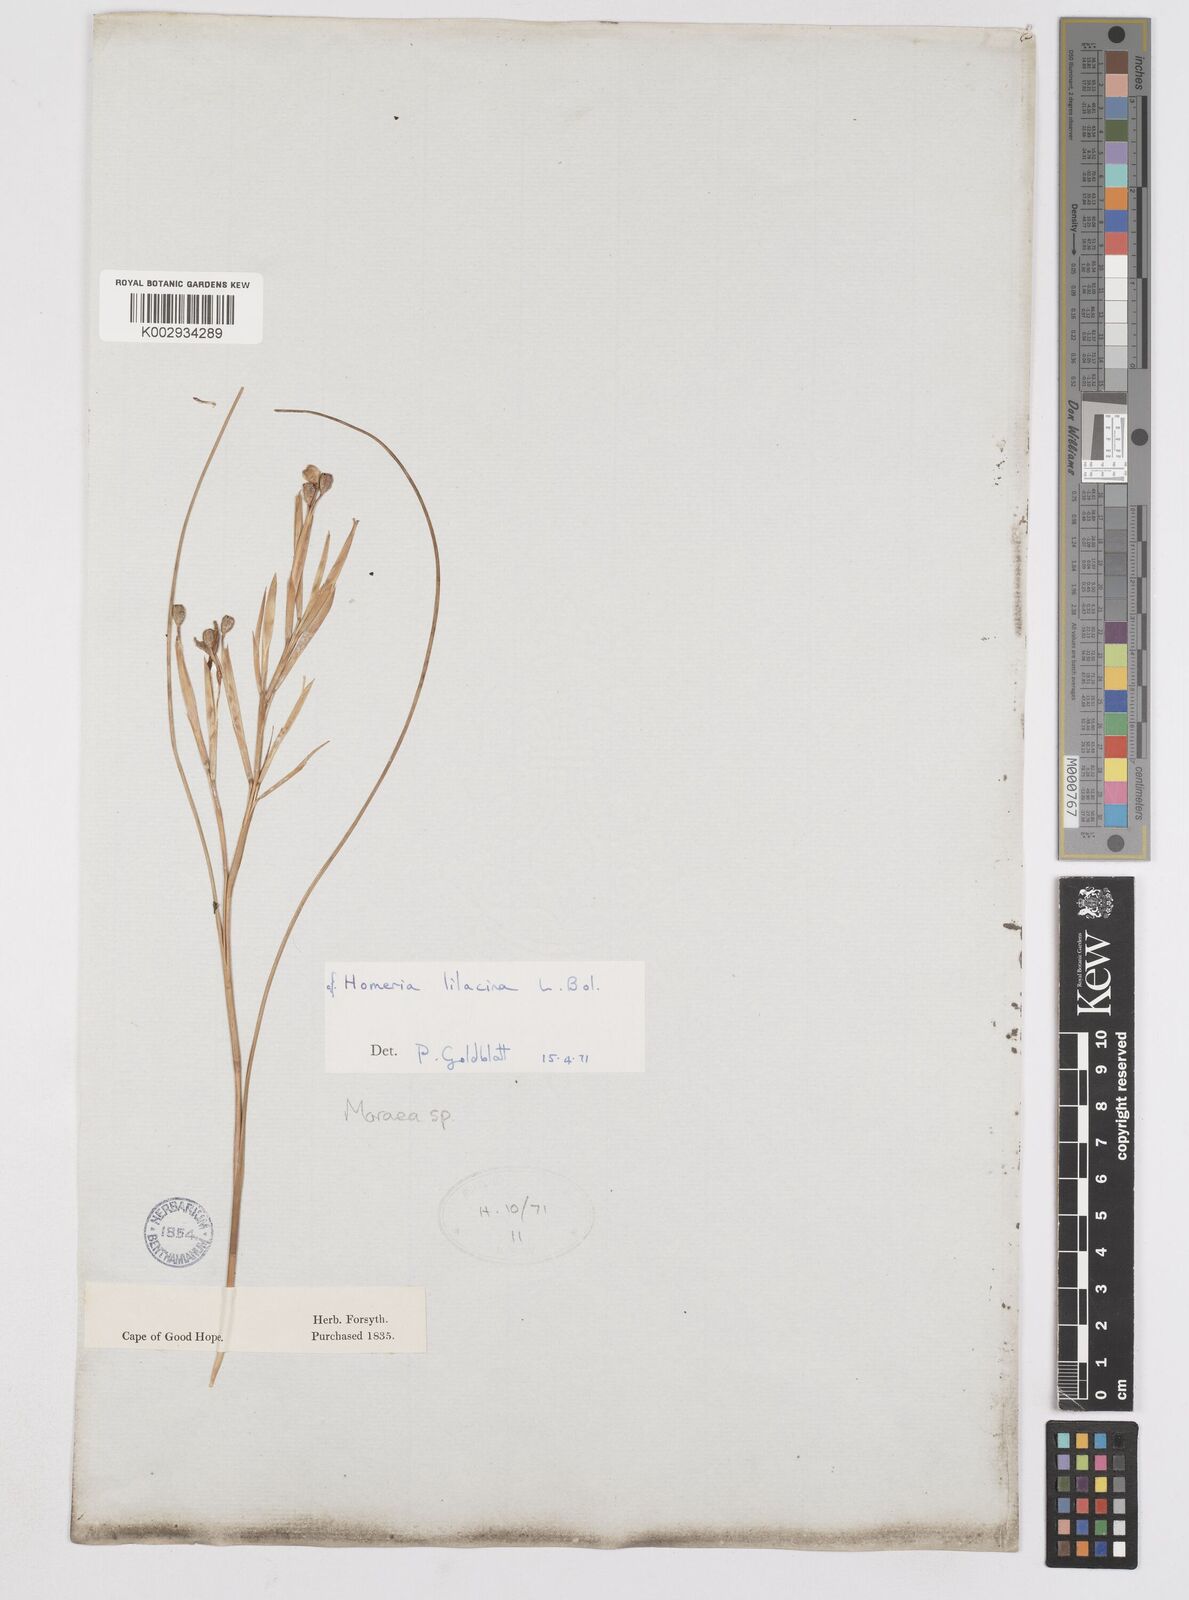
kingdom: Plantae
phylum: Tracheophyta
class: Liliopsida
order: Asparagales
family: Iridaceae
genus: Moraea
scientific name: Moraea
